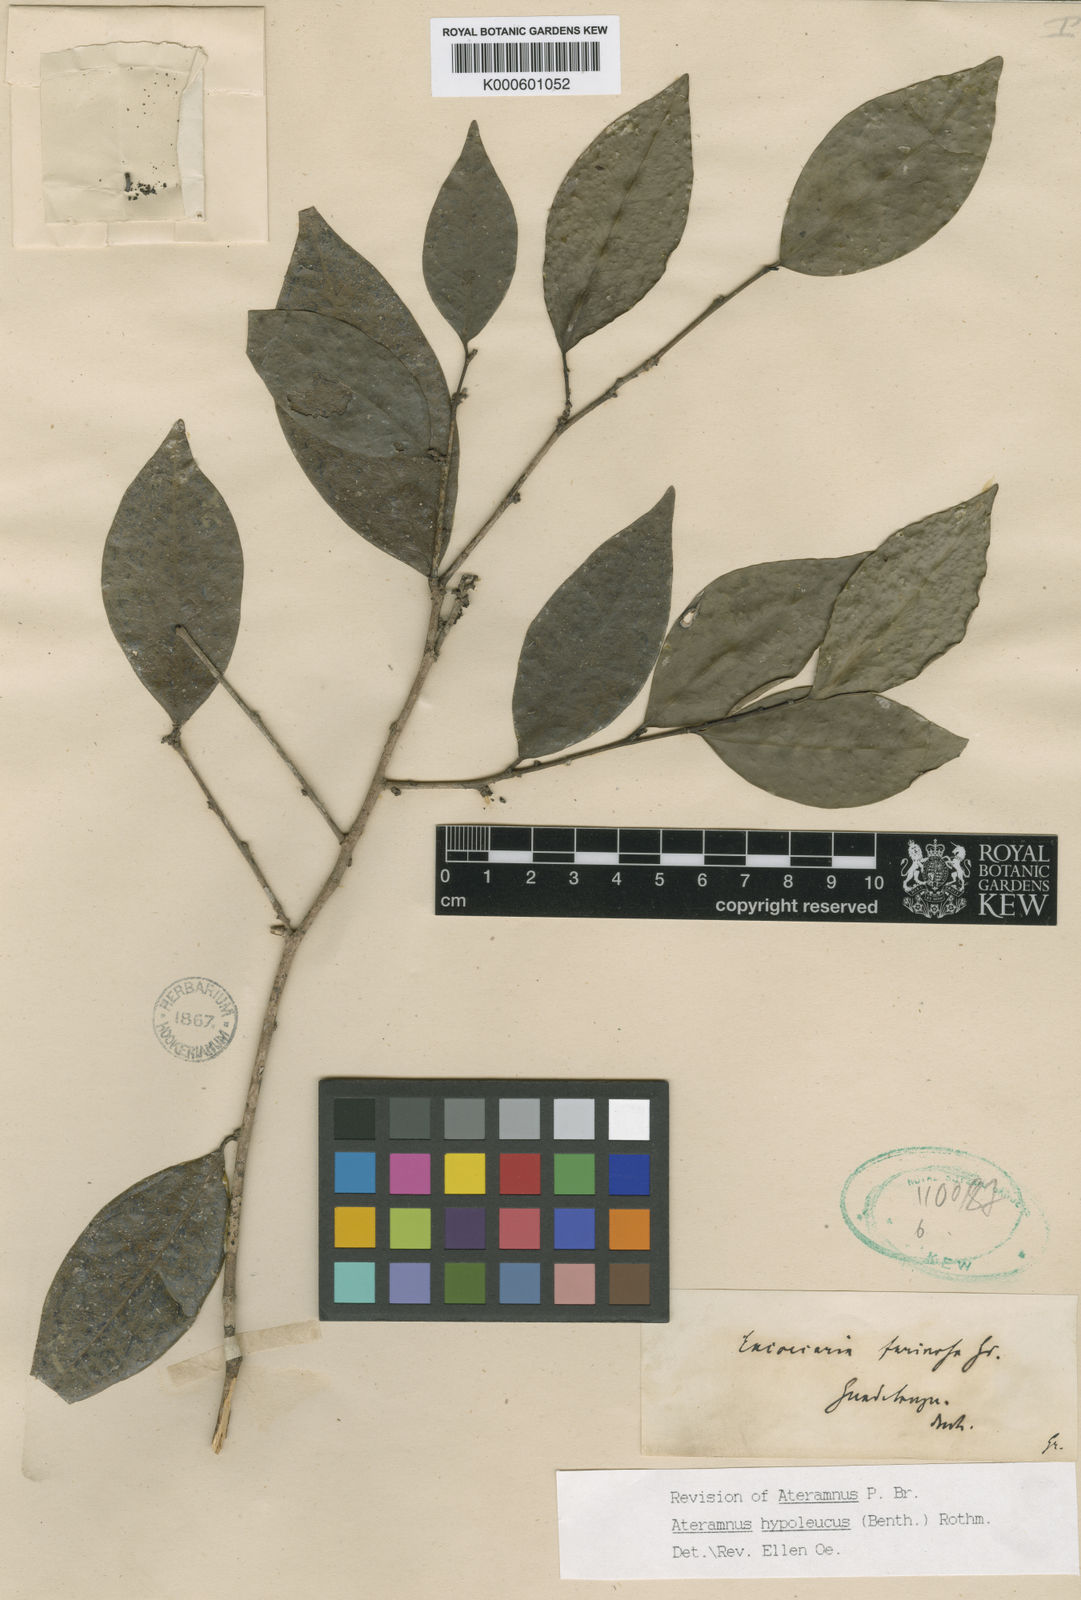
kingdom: Plantae
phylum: Tracheophyta
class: Magnoliopsida
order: Malpighiales
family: Euphorbiaceae
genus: Gymnanthes
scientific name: Gymnanthes farinosa
